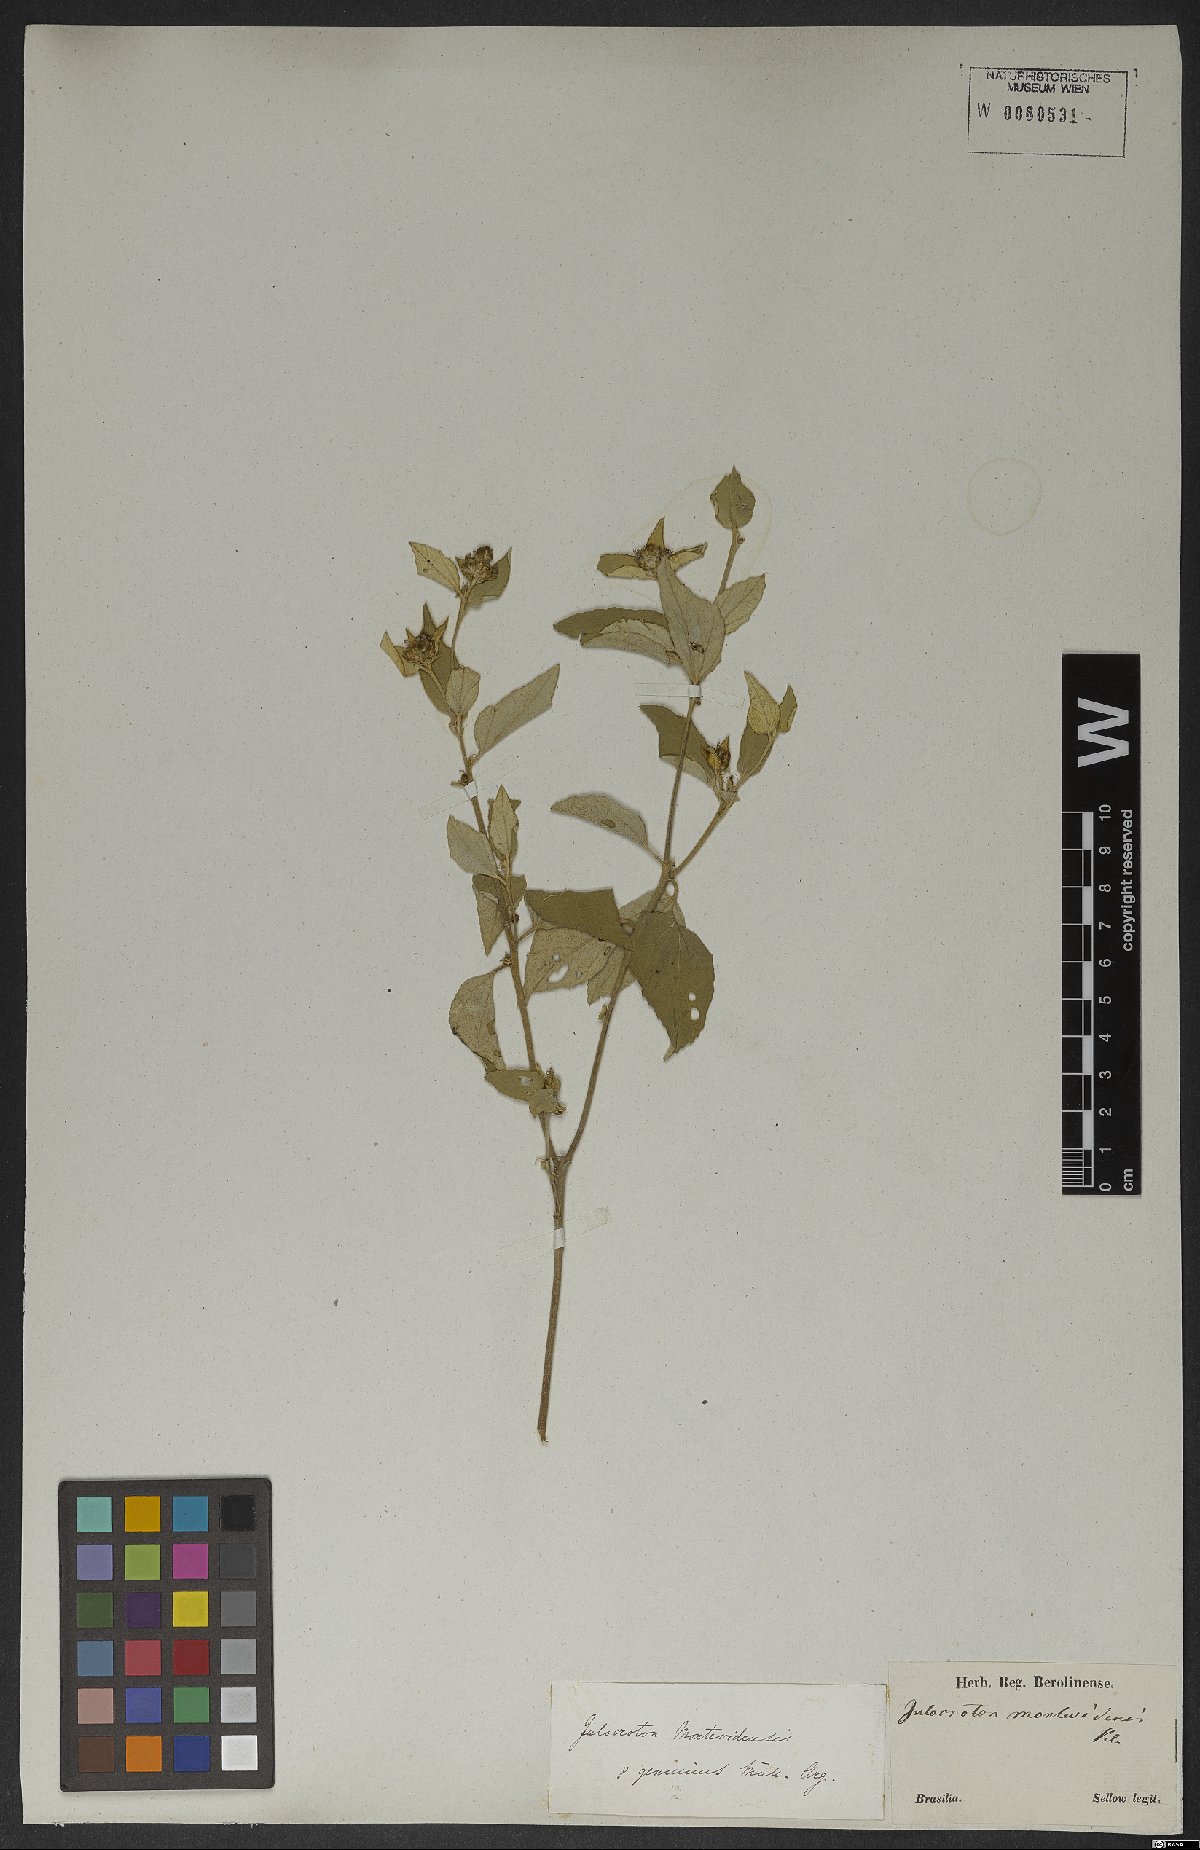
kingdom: Plantae
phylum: Tracheophyta
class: Magnoliopsida
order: Malpighiales
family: Euphorbiaceae
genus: Croton
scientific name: Croton argenteus
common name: Silver july croton
